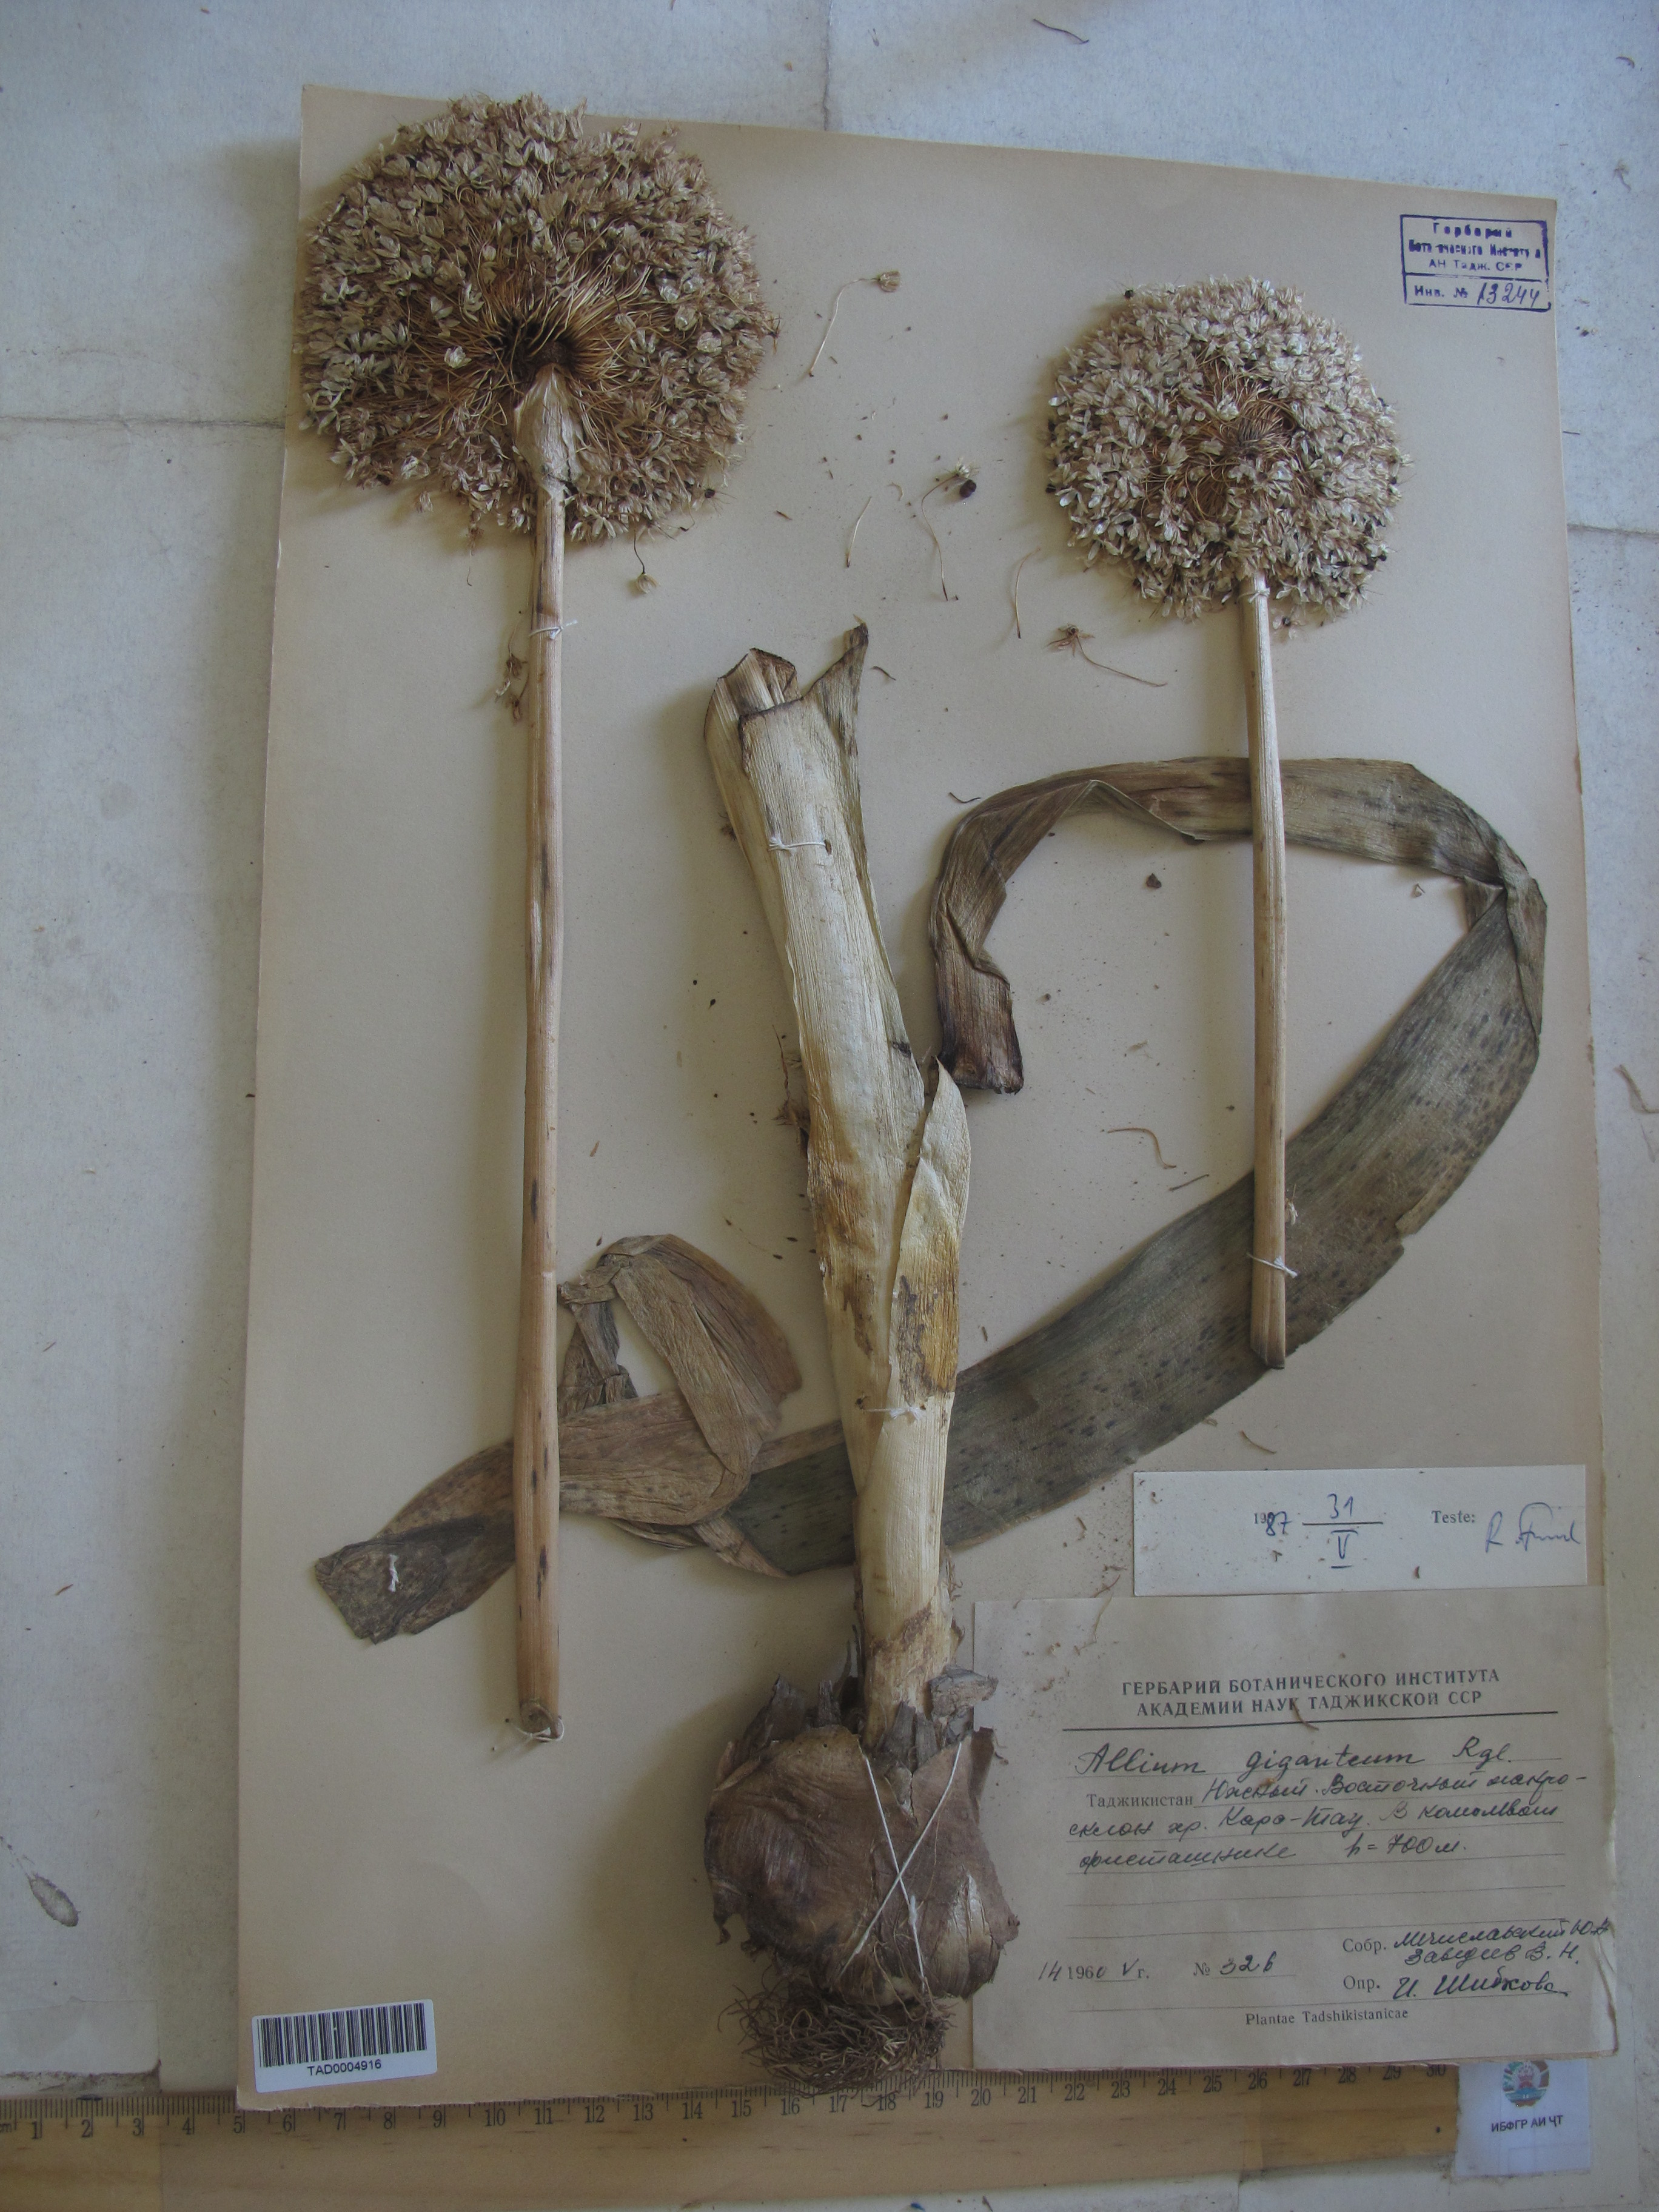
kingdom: Plantae
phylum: Tracheophyta
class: Liliopsida
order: Asparagales
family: Amaryllidaceae
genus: Allium
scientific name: Allium giganteum
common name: Giant onion
